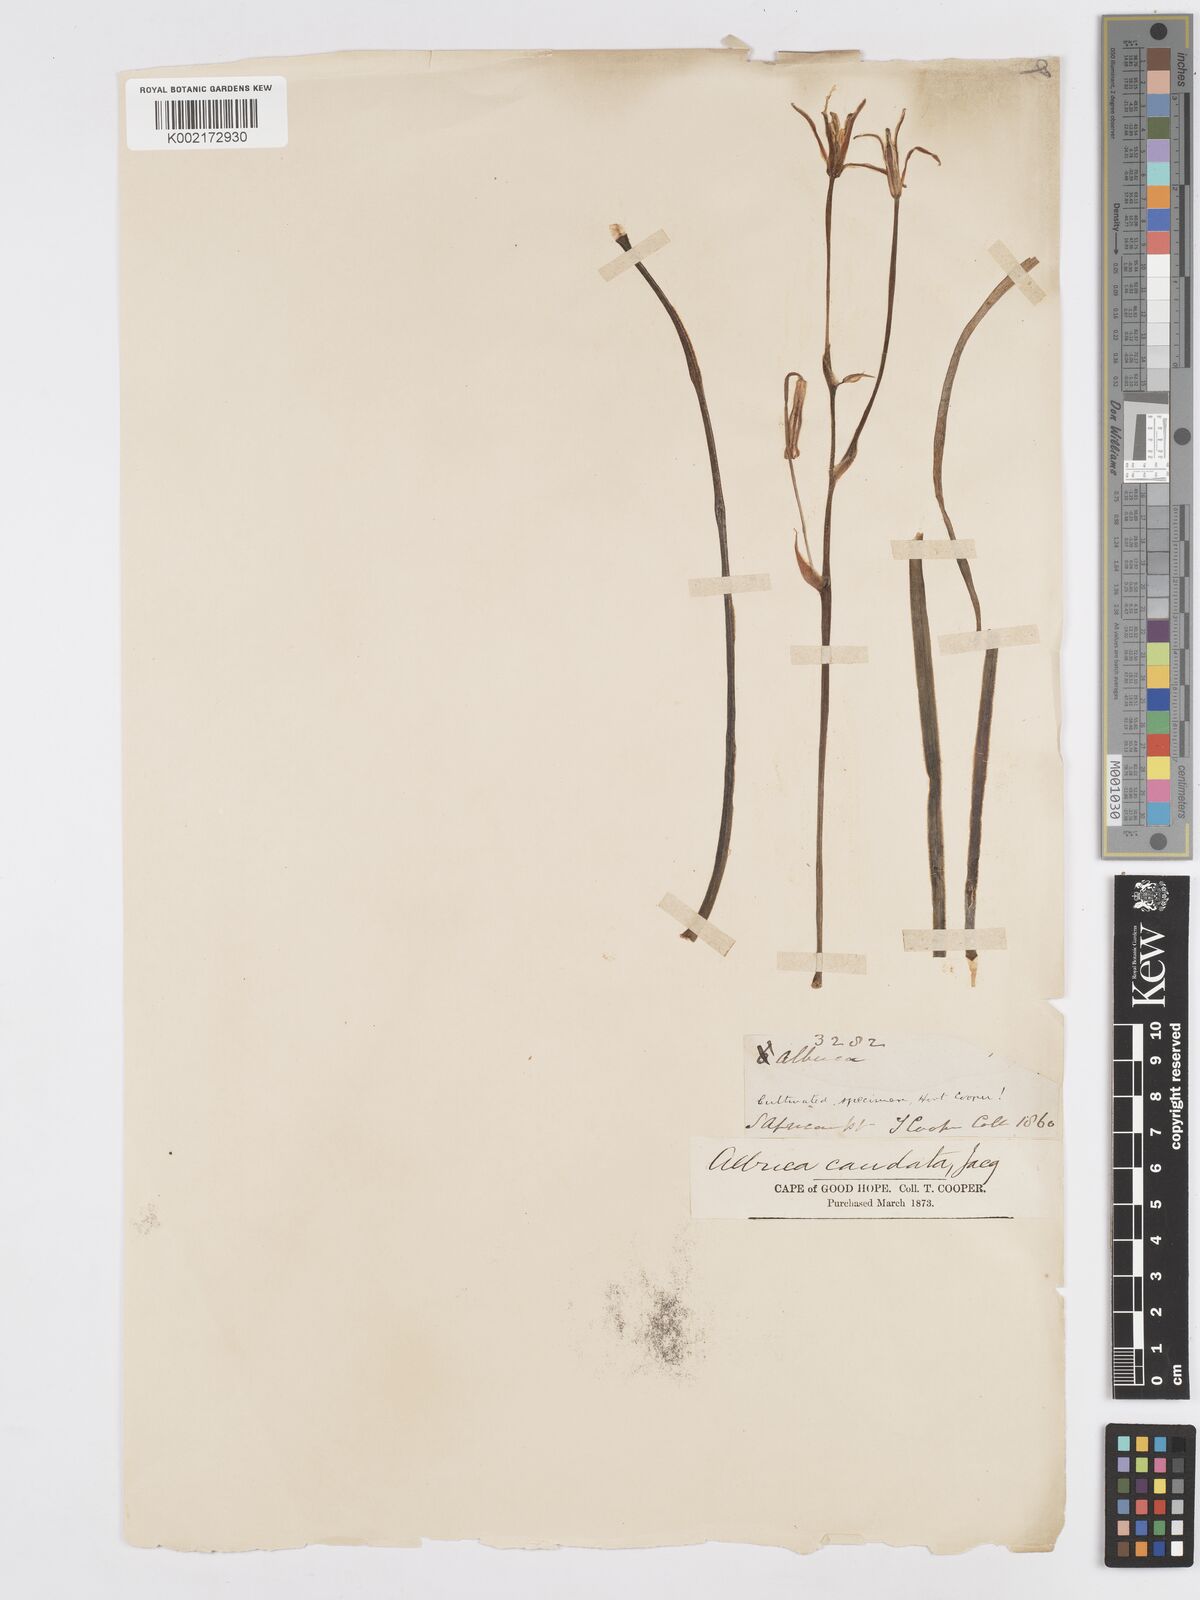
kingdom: Plantae
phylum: Tracheophyta
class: Liliopsida
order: Asparagales
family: Asparagaceae
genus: Albuca
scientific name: Albuca caudata
